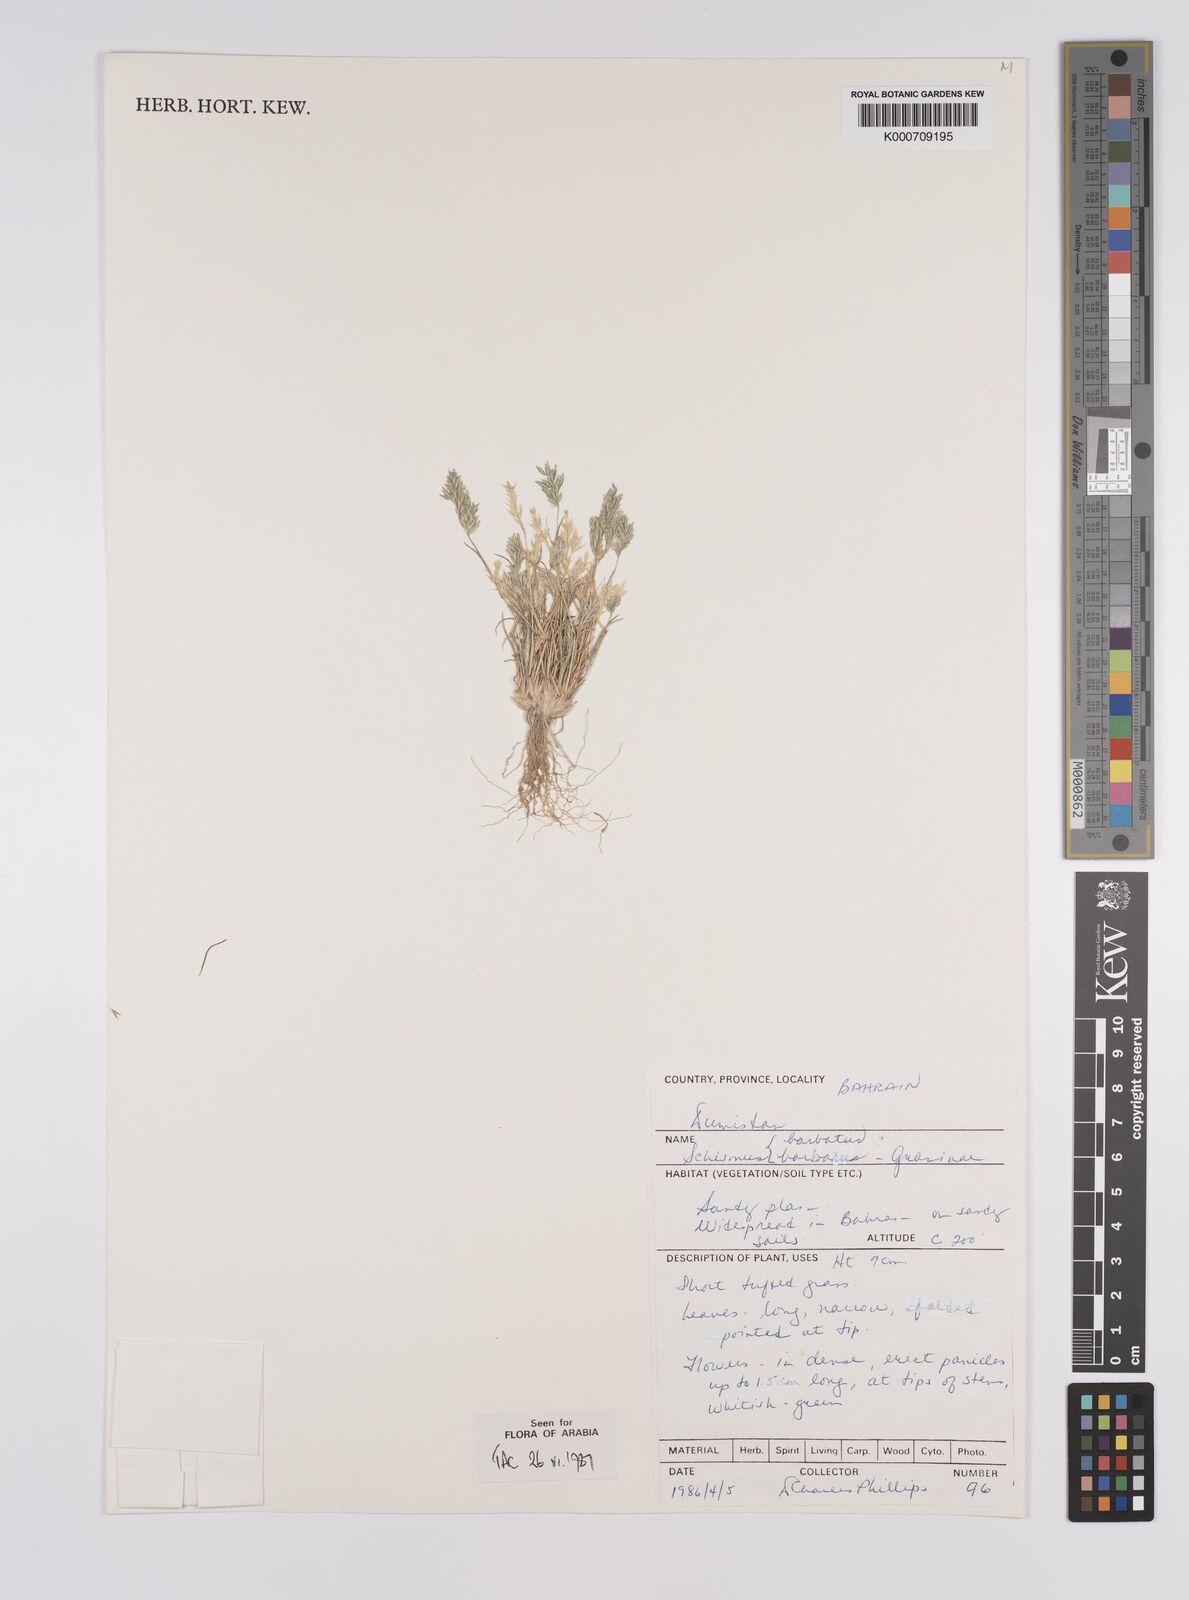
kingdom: Plantae
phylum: Tracheophyta
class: Liliopsida
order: Poales
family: Poaceae
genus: Schismus
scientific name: Schismus barbatus
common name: Kelch-grass
